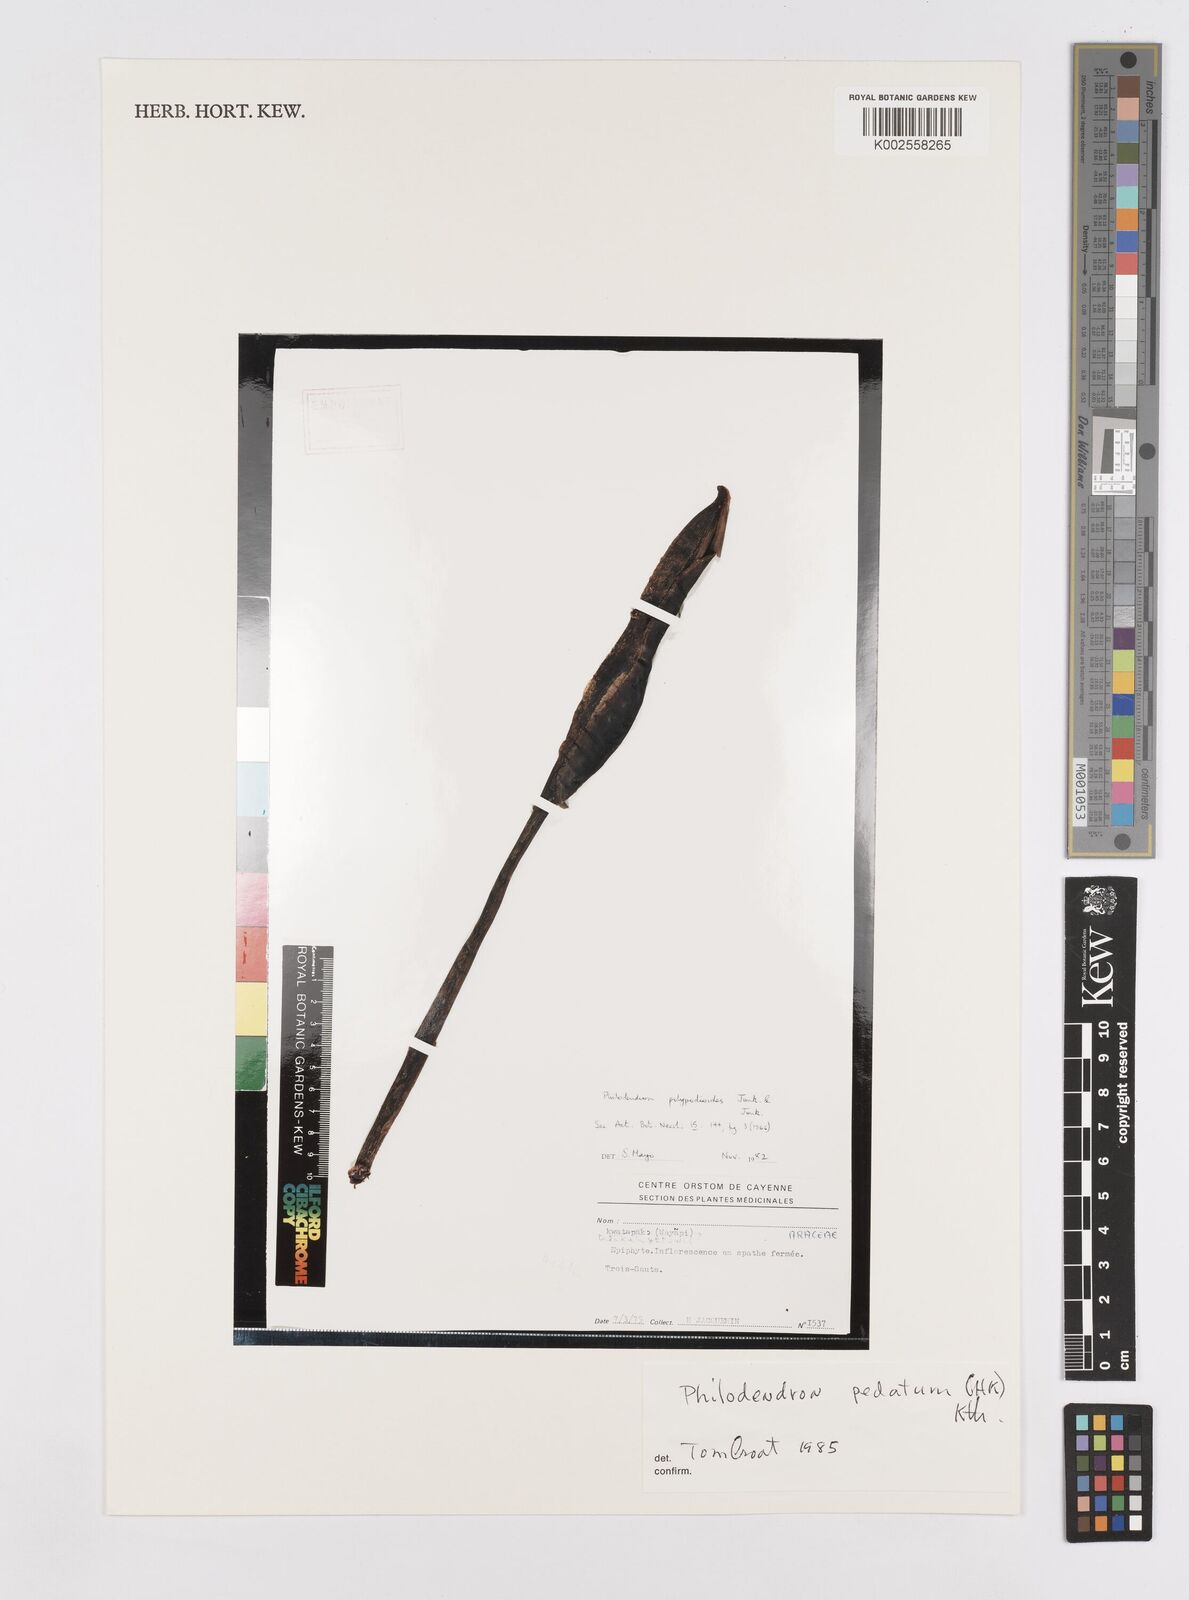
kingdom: Plantae
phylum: Tracheophyta
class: Liliopsida
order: Alismatales
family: Araceae
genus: Philodendron
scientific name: Philodendron pedatum
